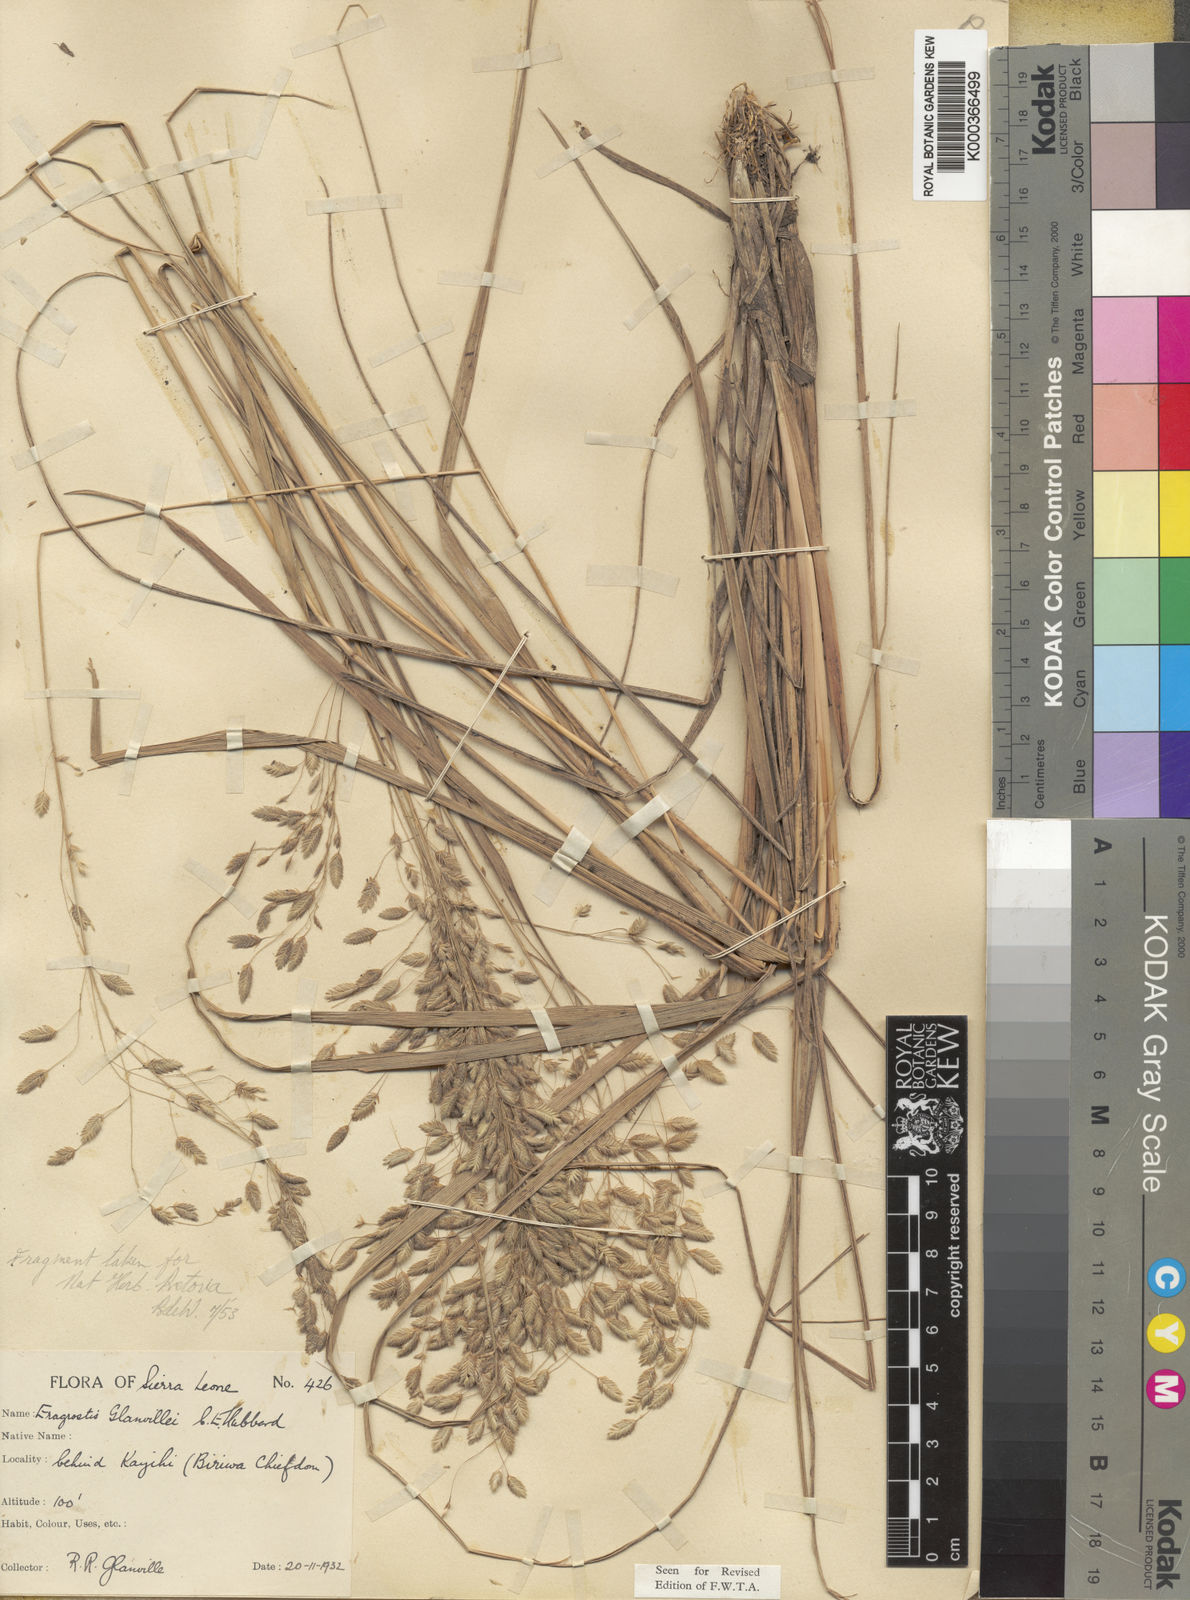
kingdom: Plantae
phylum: Tracheophyta
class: Liliopsida
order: Poales
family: Poaceae
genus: Eragrostis
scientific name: Eragrostis invalida
